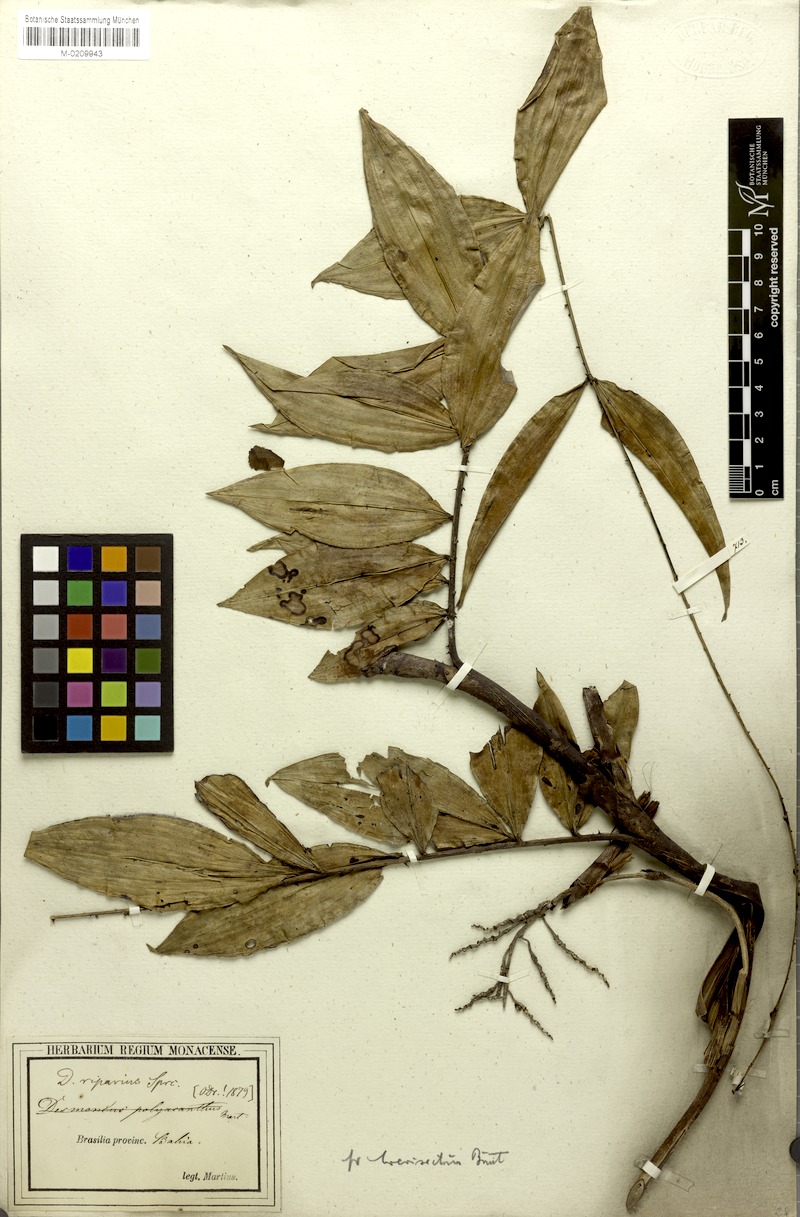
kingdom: Plantae
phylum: Tracheophyta
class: Liliopsida
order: Arecales
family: Arecaceae
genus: Desmoncus
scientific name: Desmoncus polyacanthos
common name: Suriname bramble palm
